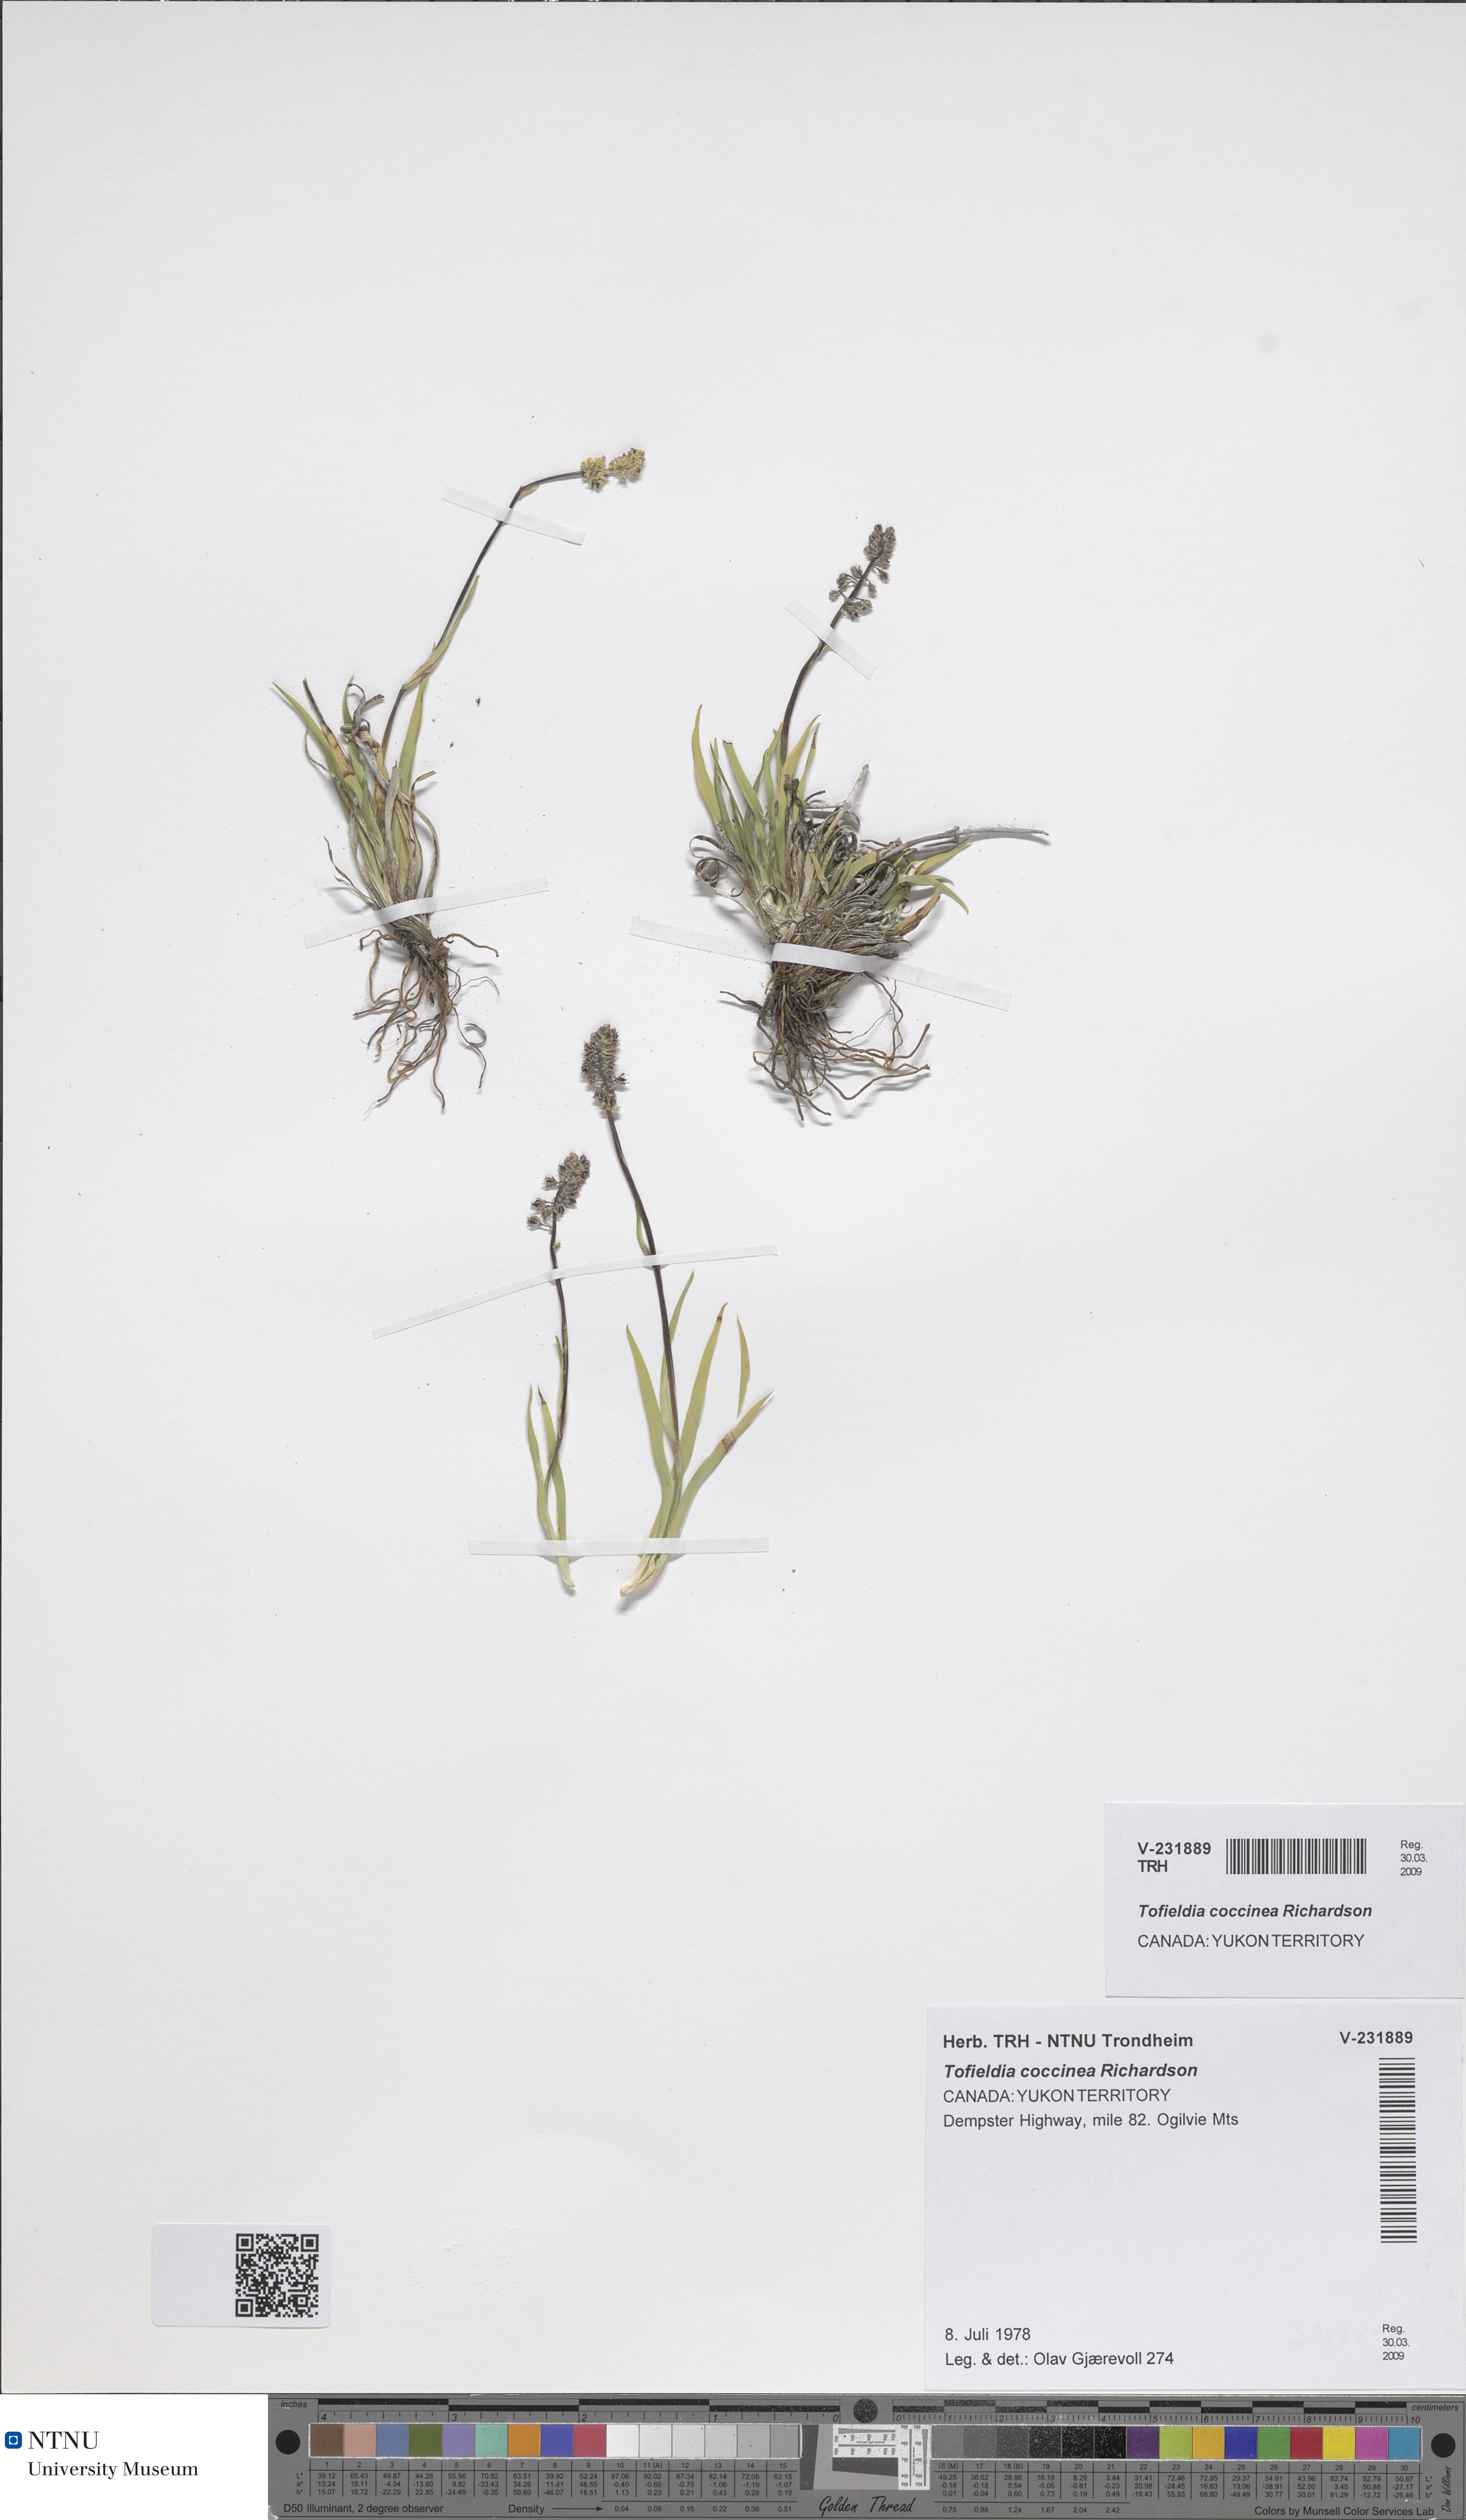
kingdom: Plantae
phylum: Tracheophyta
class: Liliopsida
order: Alismatales
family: Tofieldiaceae
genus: Tofieldia
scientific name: Tofieldia coccinea
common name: Northern false asphodel
